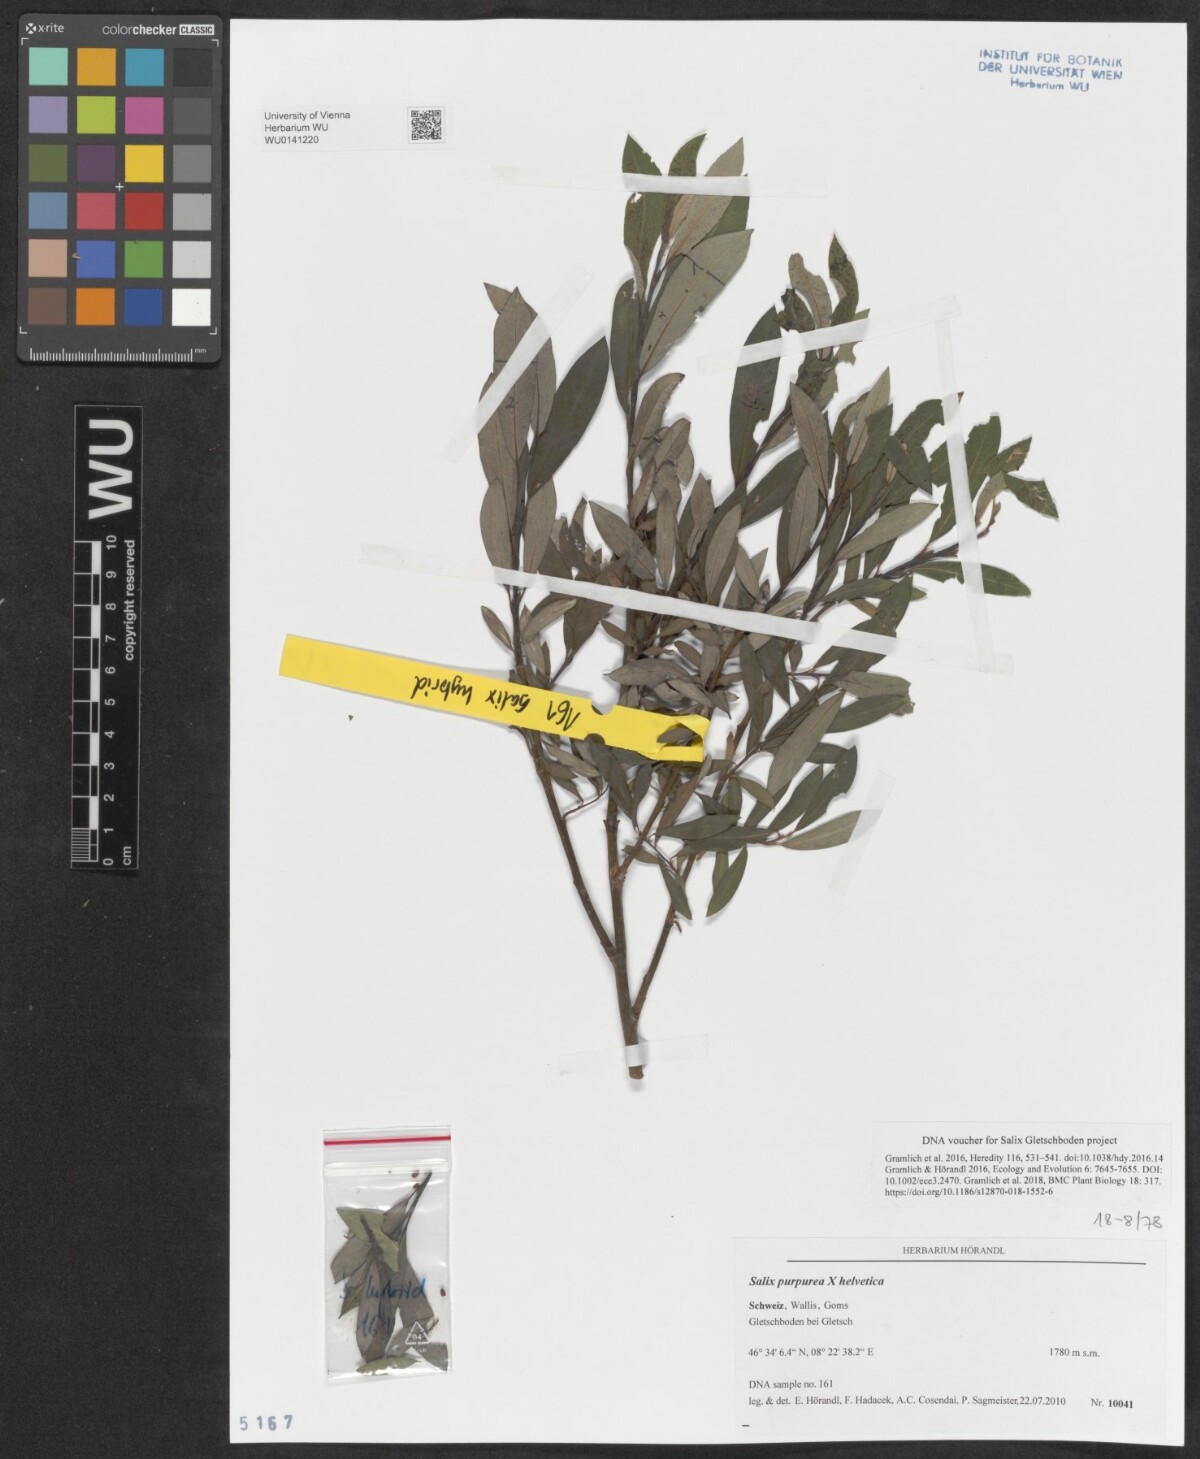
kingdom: Plantae
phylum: Tracheophyta
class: Magnoliopsida
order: Malpighiales
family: Salicaceae
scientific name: Salicaceae
